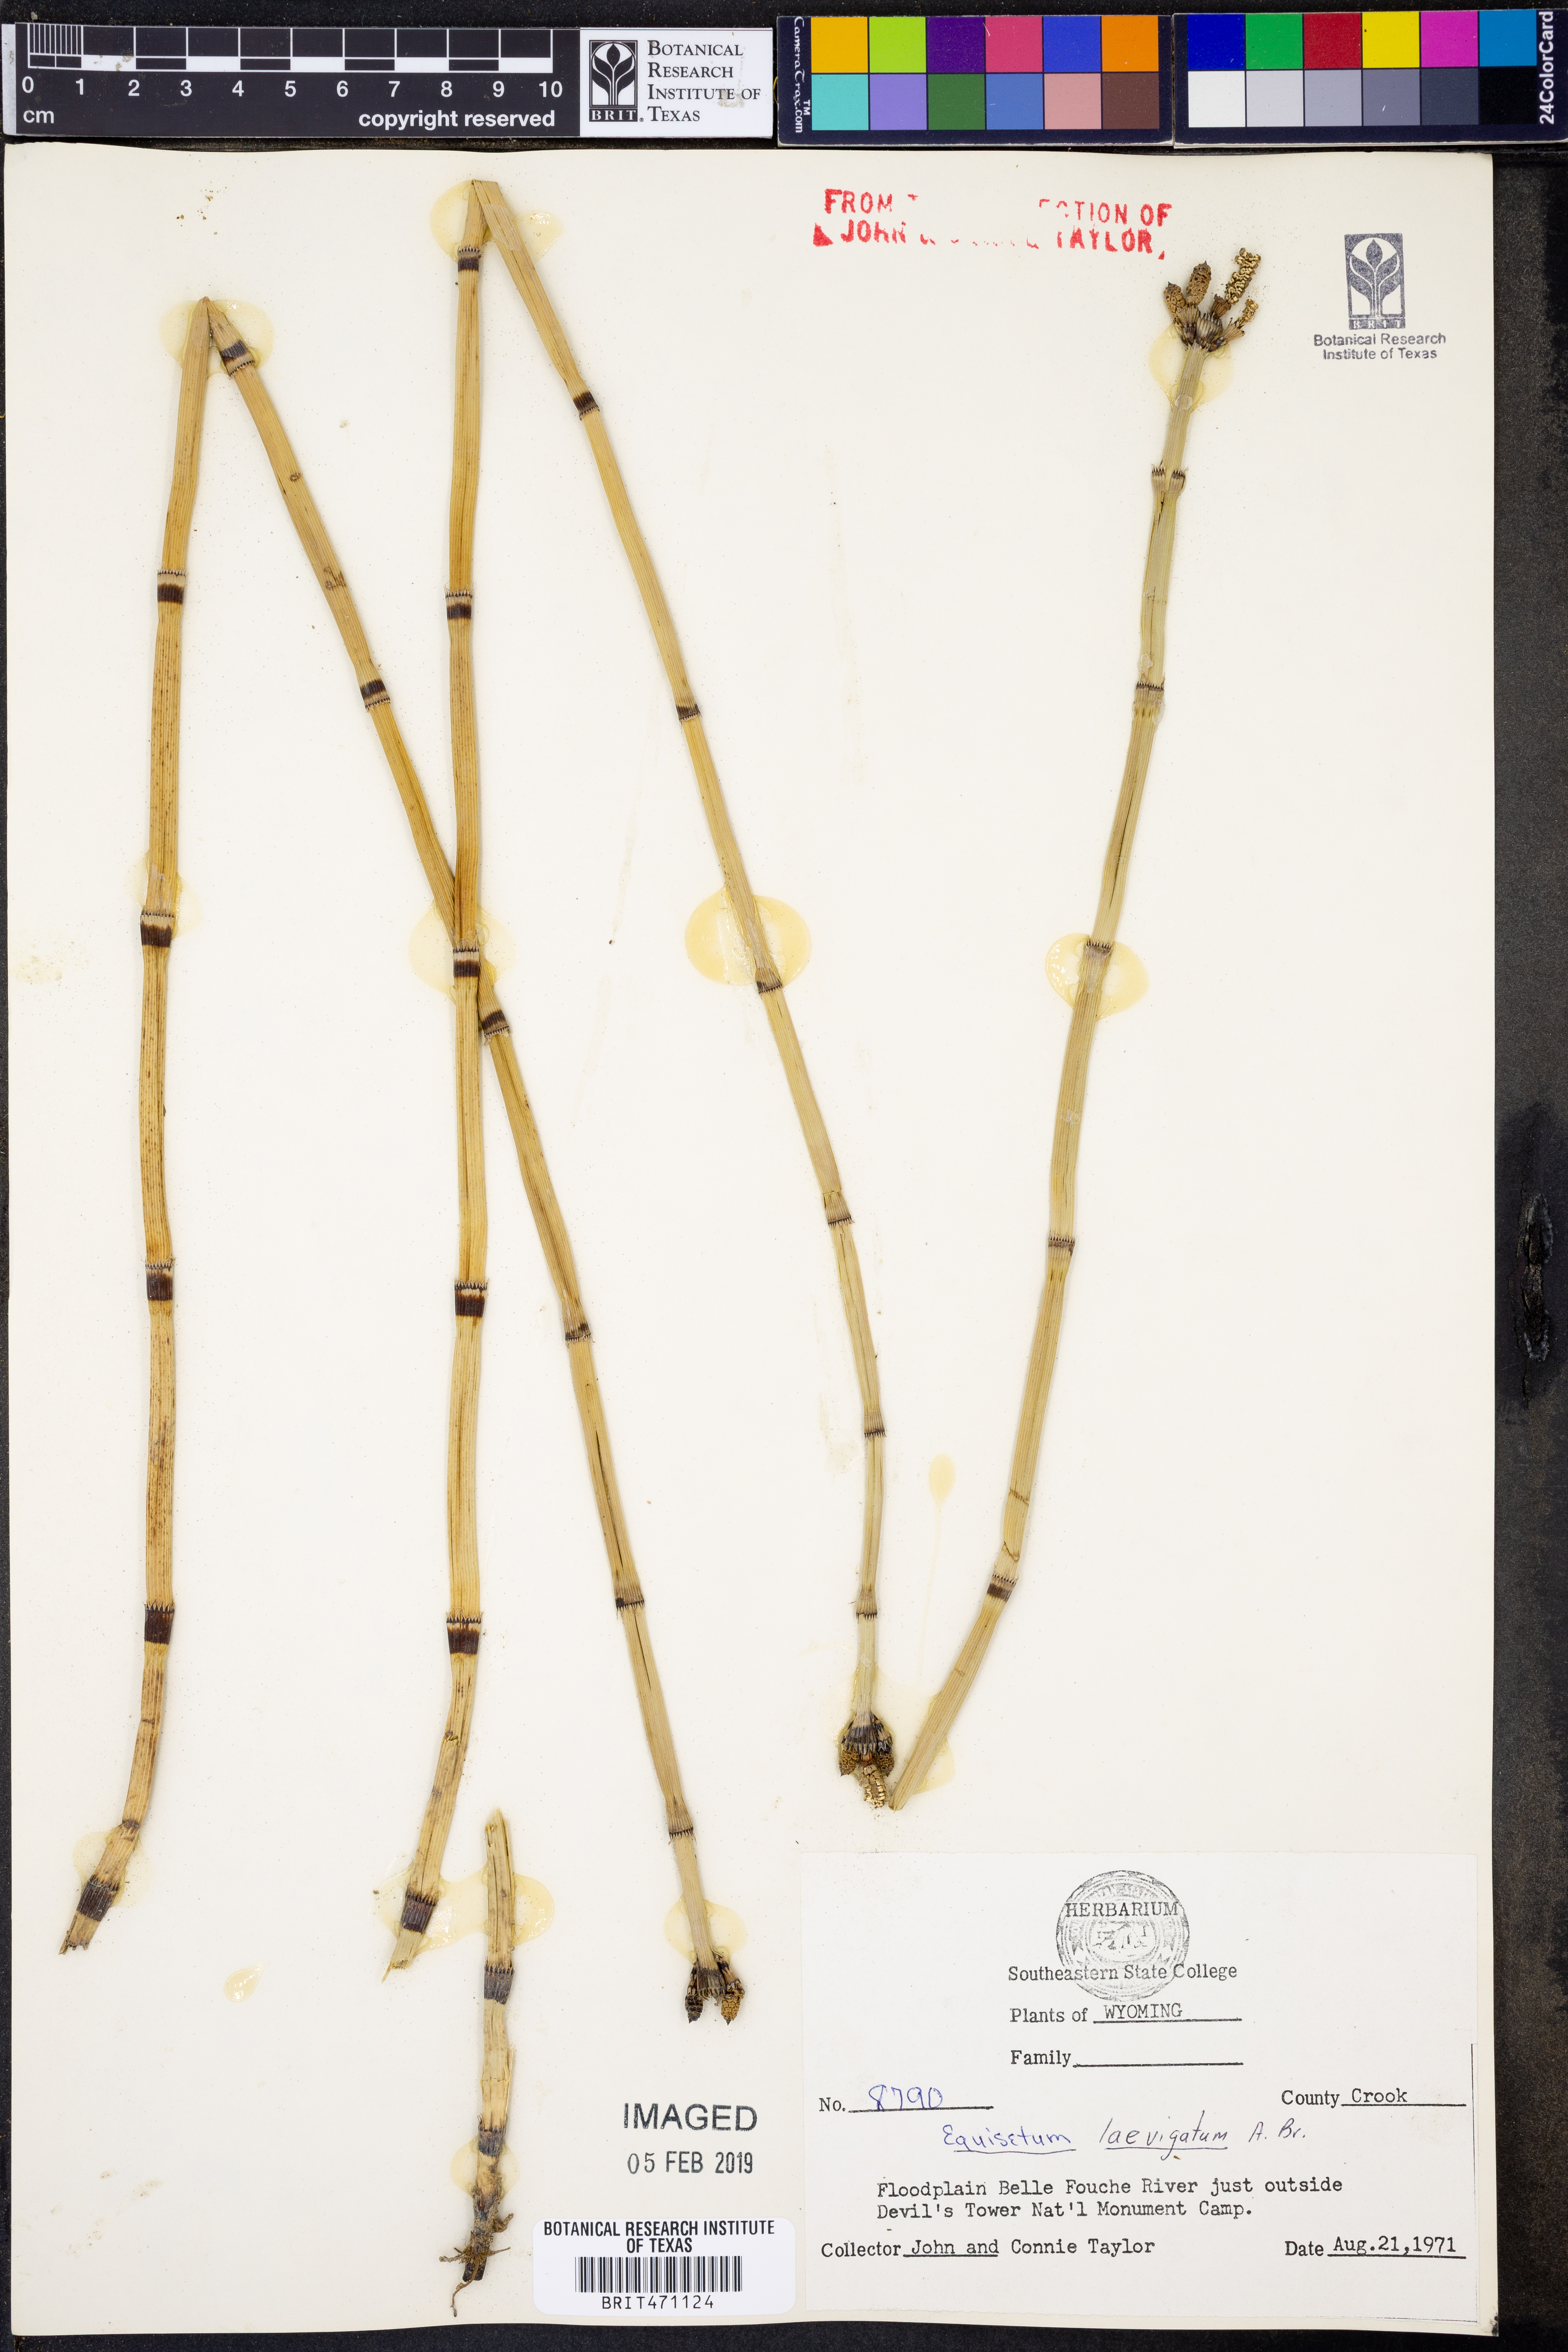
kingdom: Plantae
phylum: Tracheophyta
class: Polypodiopsida
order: Equisetales
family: Equisetaceae
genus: Equisetum
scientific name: Equisetum laevigatum
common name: Smooth scouring-rush
